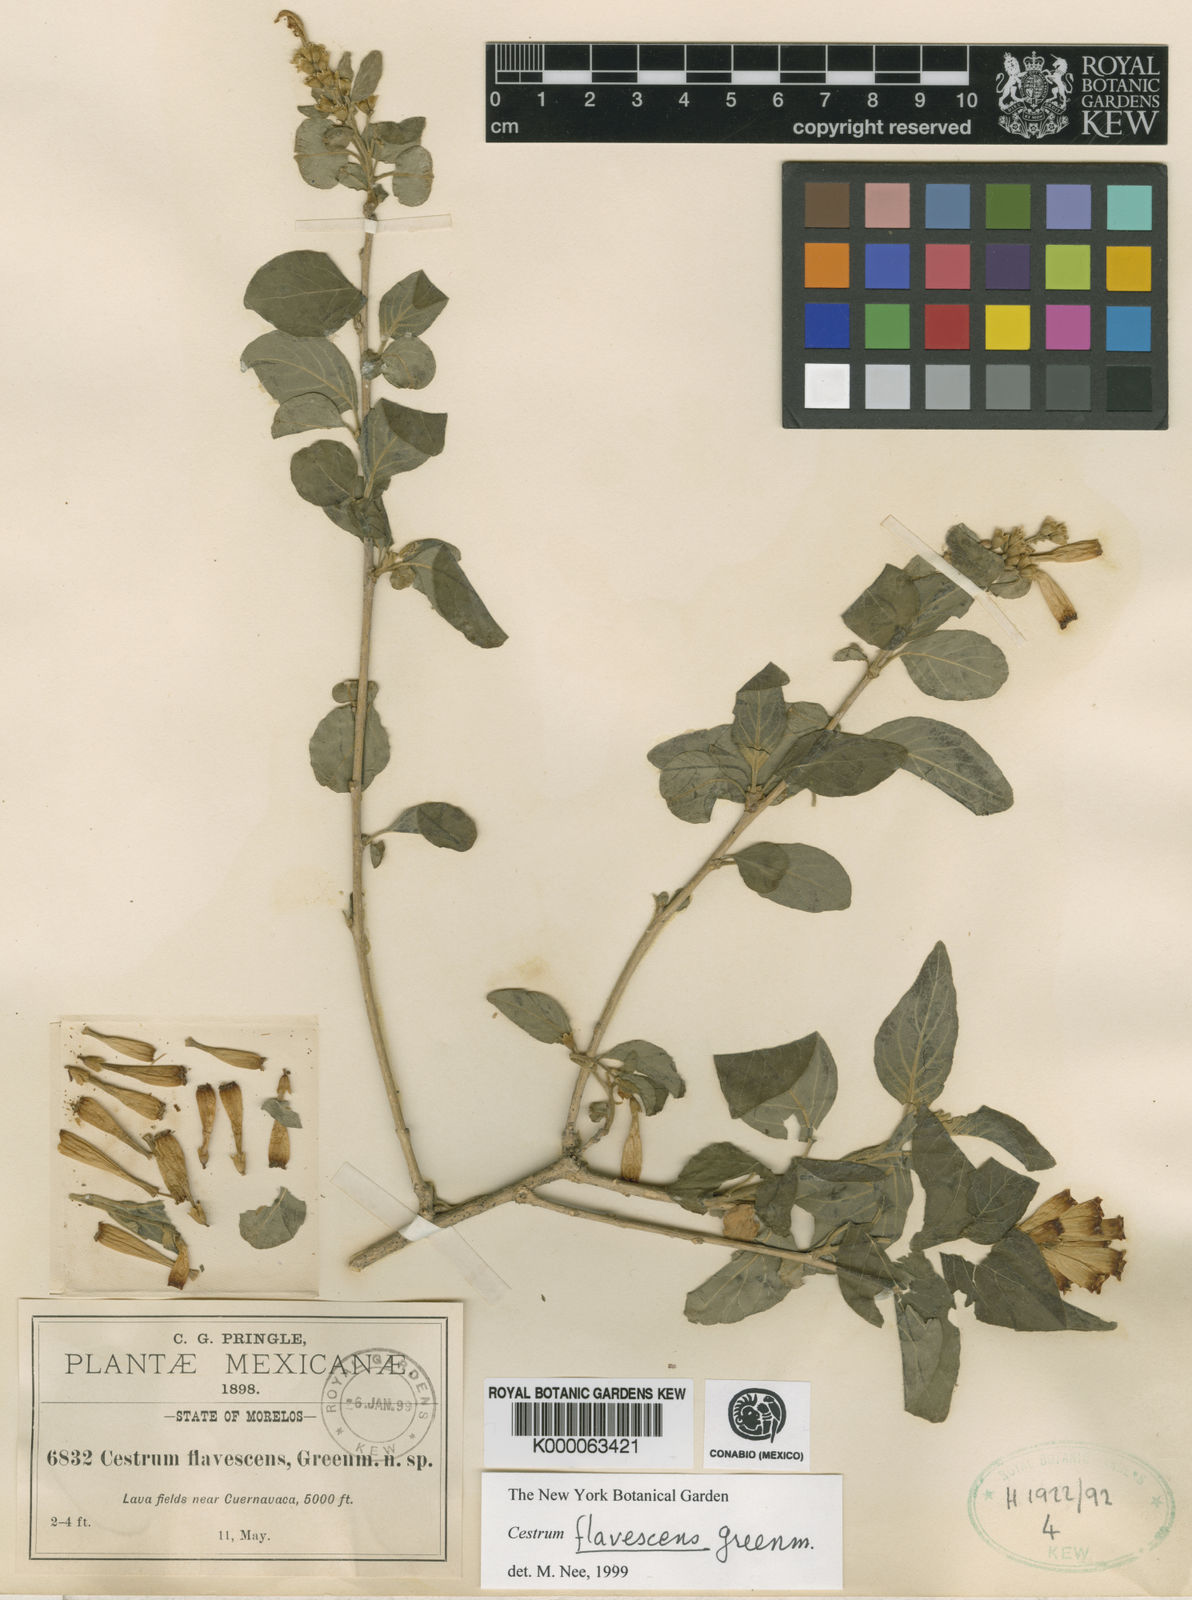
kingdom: Plantae
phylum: Tracheophyta
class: Magnoliopsida
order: Solanales
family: Solanaceae
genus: Cestrum
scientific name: Cestrum
